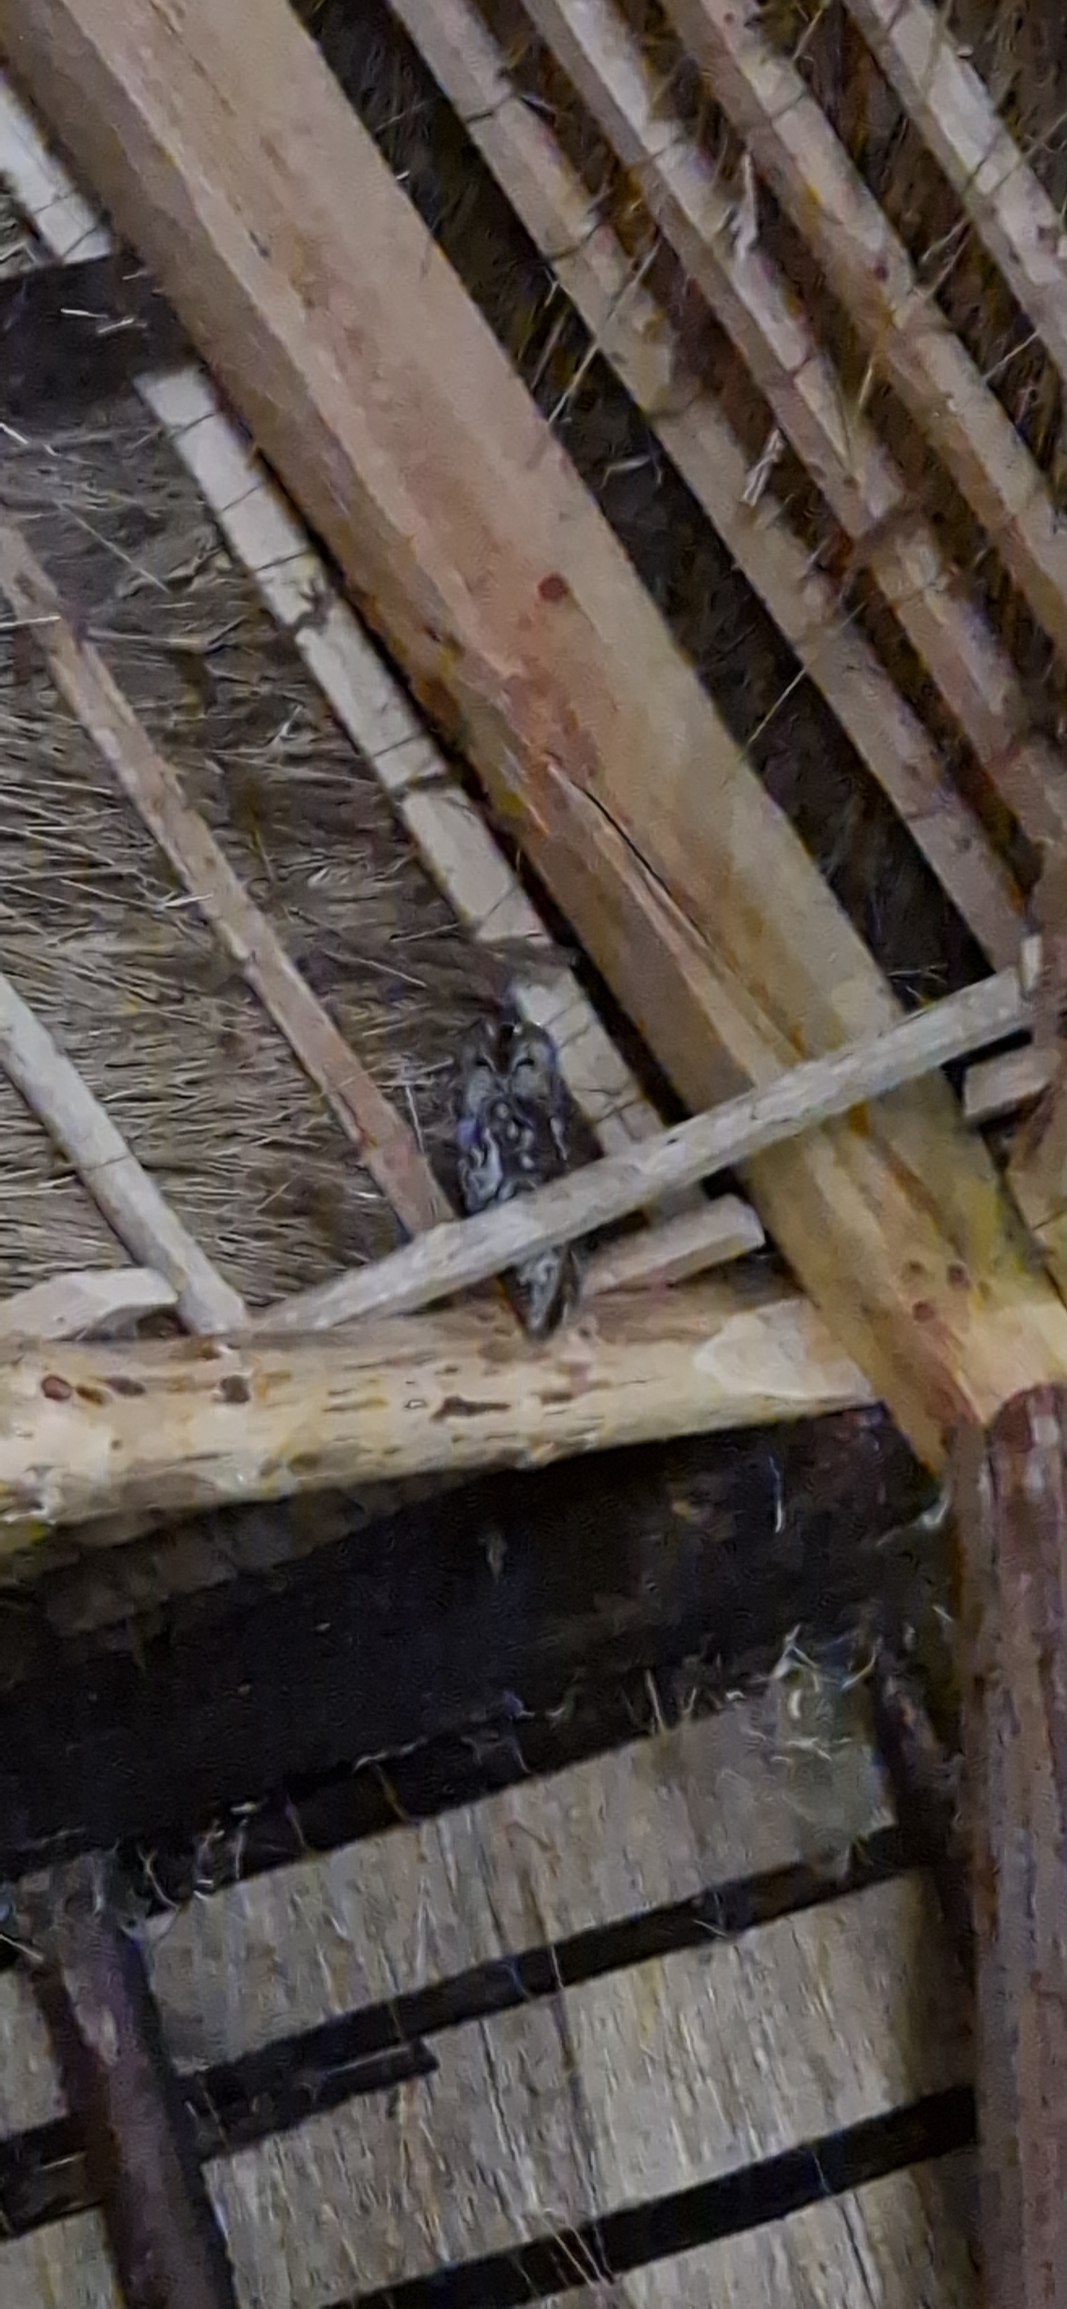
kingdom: Animalia
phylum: Chordata
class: Aves
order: Strigiformes
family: Strigidae
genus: Strix
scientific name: Strix aluco
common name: Natugle
